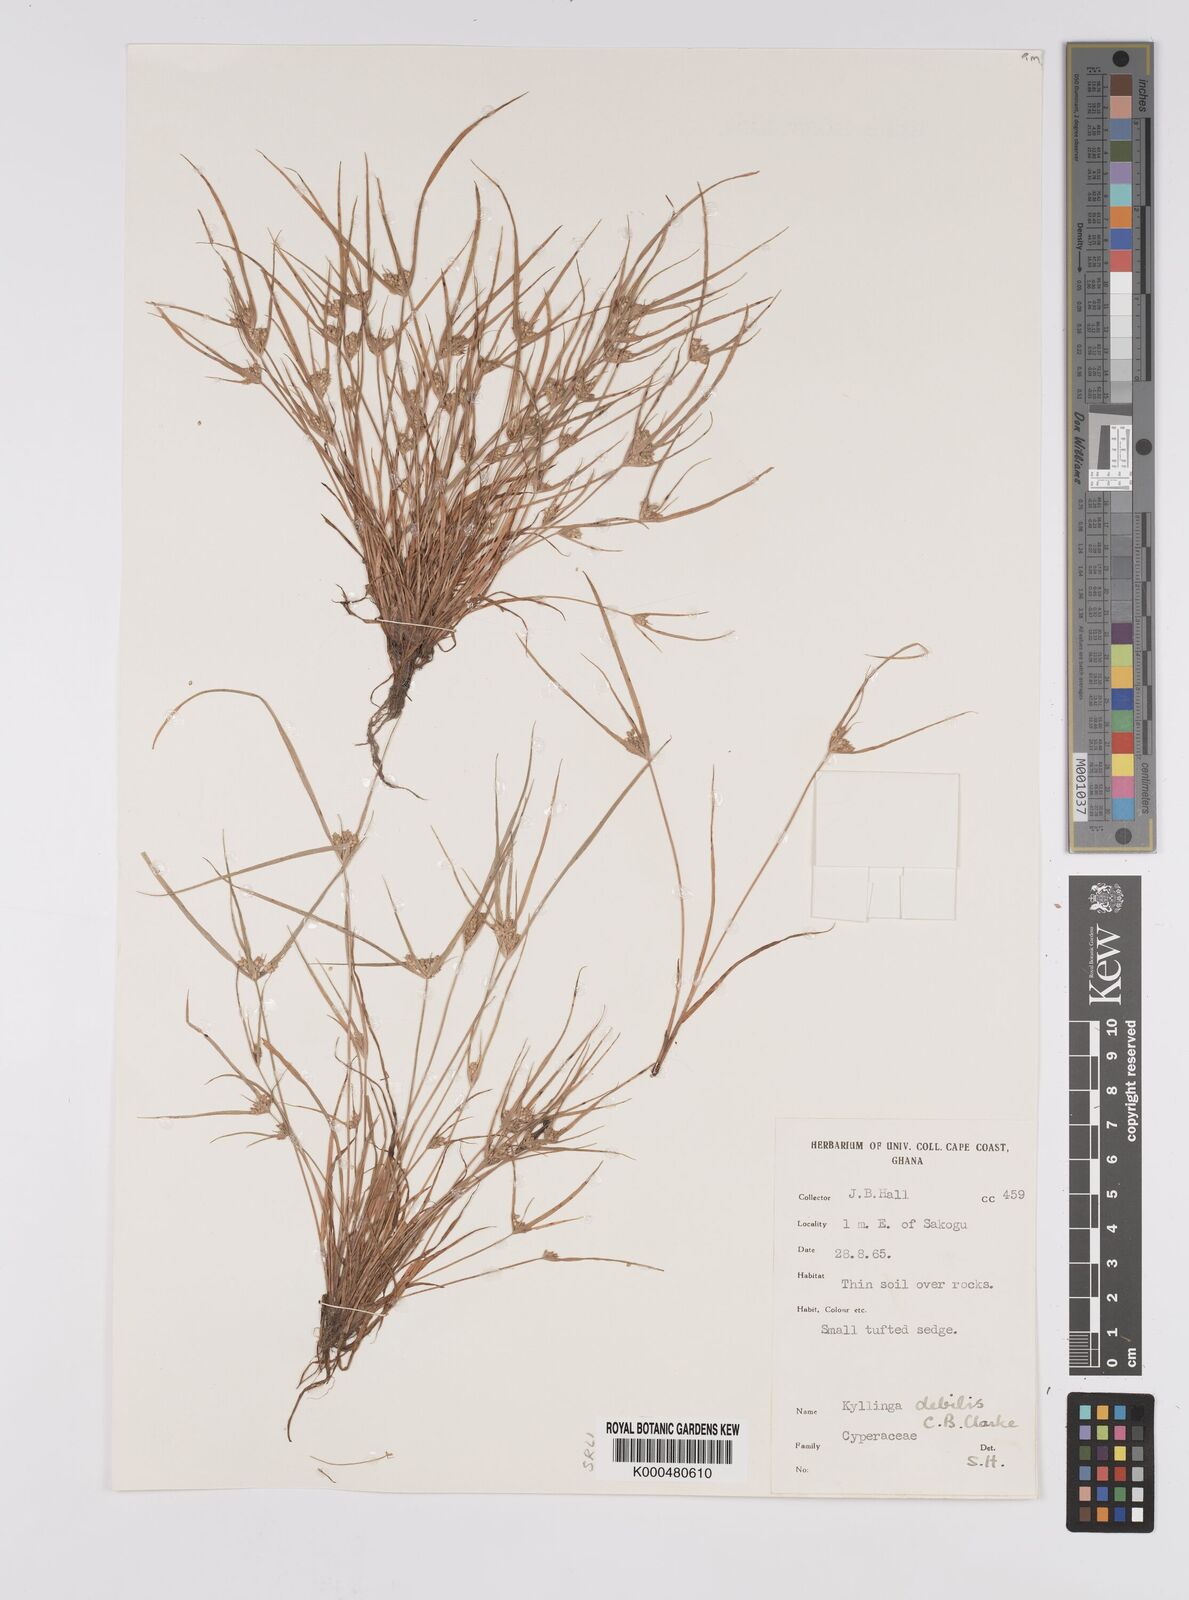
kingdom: Plantae
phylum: Tracheophyta
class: Liliopsida
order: Poales
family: Cyperaceae
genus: Cyperus
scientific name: Cyperus leptorhachis
